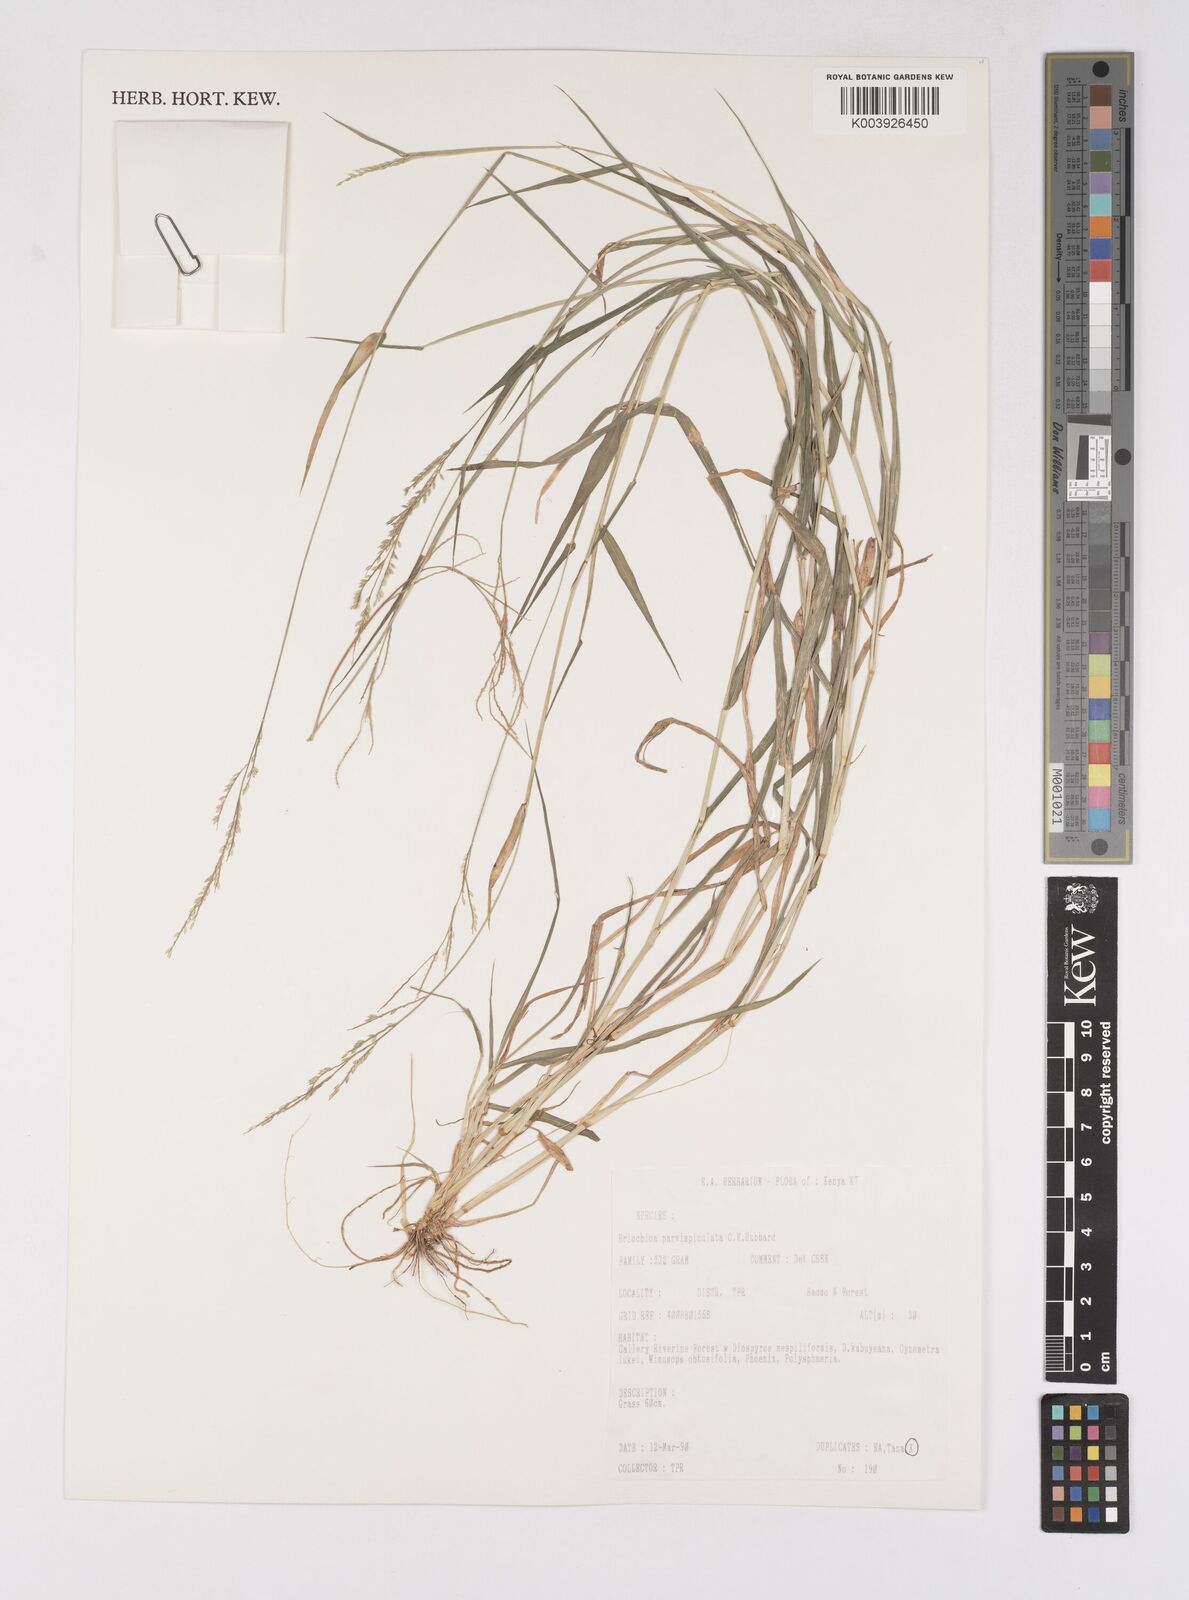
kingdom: Plantae
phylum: Tracheophyta
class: Liliopsida
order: Poales
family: Poaceae
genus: Eriochloa
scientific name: Eriochloa parvispiculata
